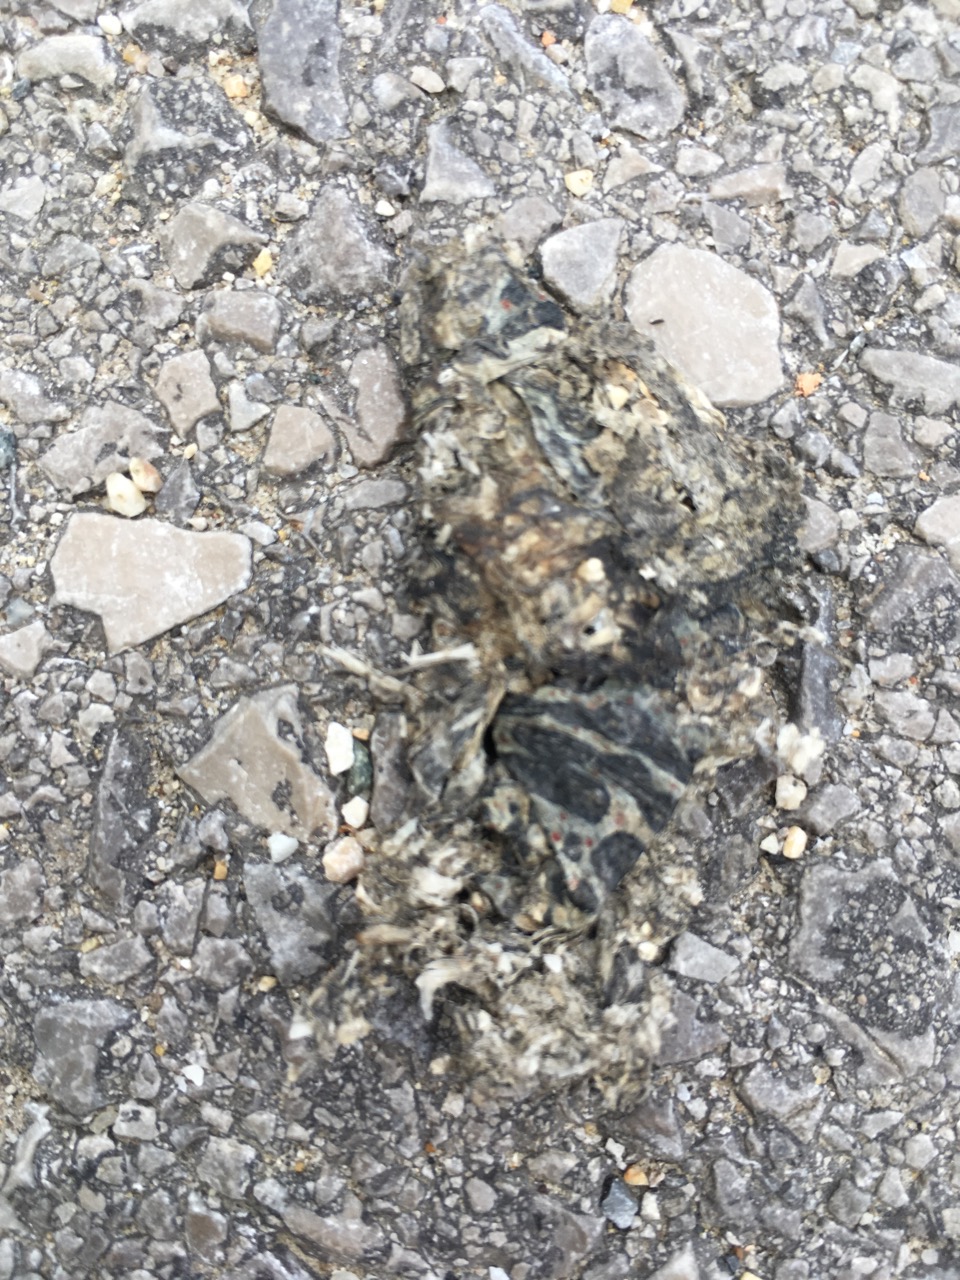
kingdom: Animalia
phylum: Chordata
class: Amphibia
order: Anura
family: Bufonidae
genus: Bufotes
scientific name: Bufotes viridis
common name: European green toad
